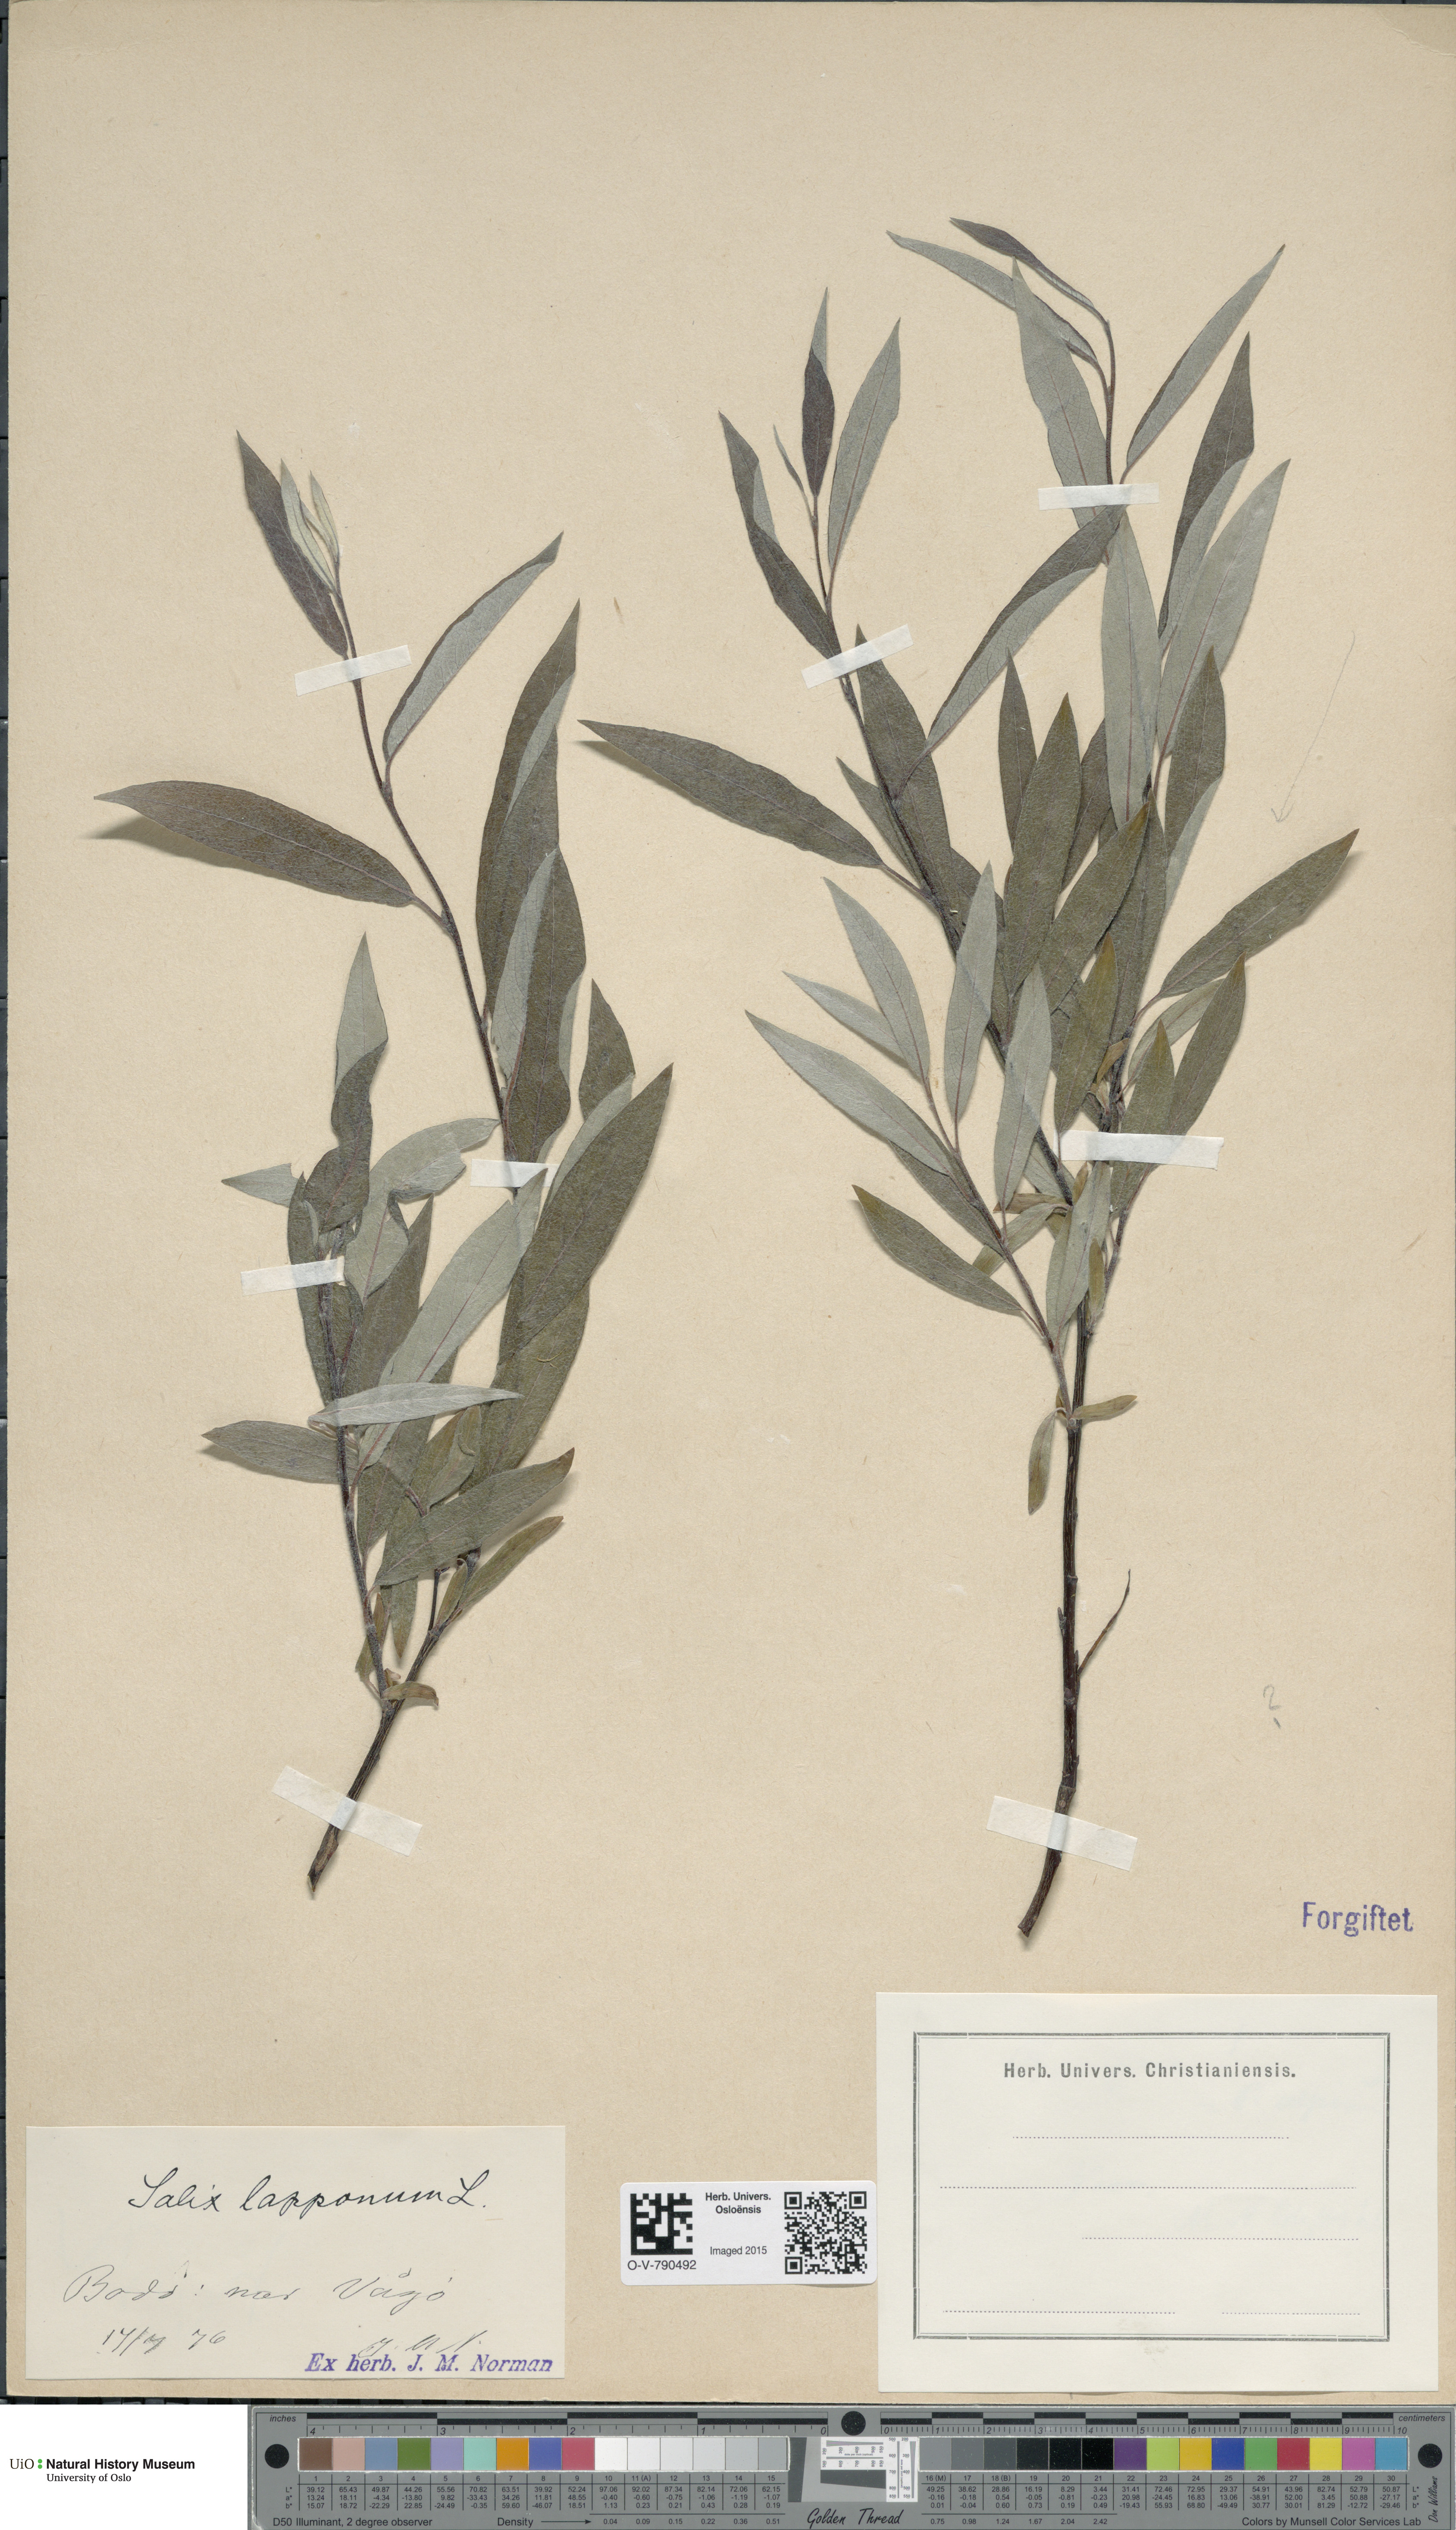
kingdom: Plantae
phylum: Tracheophyta
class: Magnoliopsida
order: Malpighiales
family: Salicaceae
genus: Salix
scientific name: Salix lapponum
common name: Downy willow
